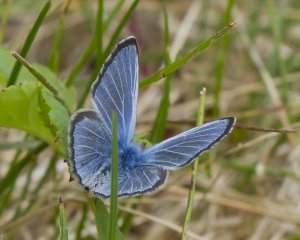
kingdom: Animalia
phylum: Arthropoda
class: Insecta
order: Lepidoptera
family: Lycaenidae
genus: Glaucopsyche
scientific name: Glaucopsyche lygdamus
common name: Silvery Blue
